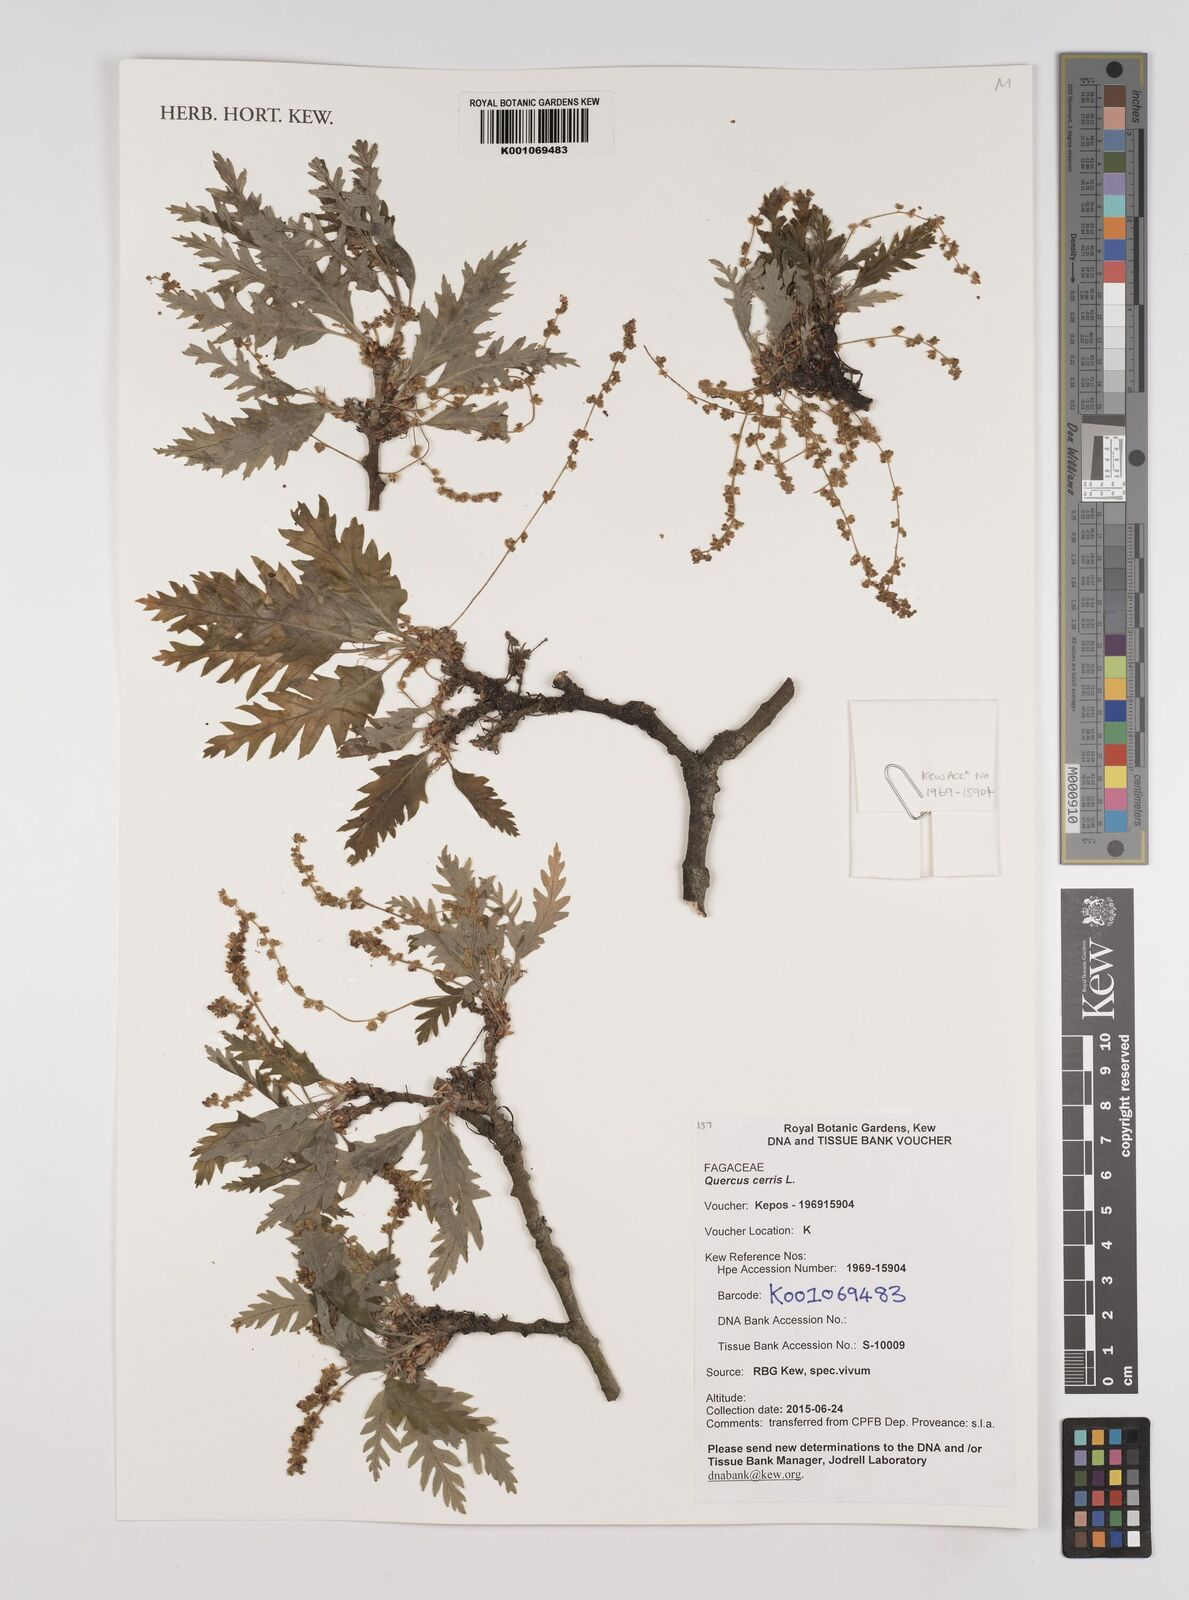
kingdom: Plantae
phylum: Tracheophyta
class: Magnoliopsida
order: Fagales
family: Fagaceae
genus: Quercus
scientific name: Quercus cerris
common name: Turkey oak
